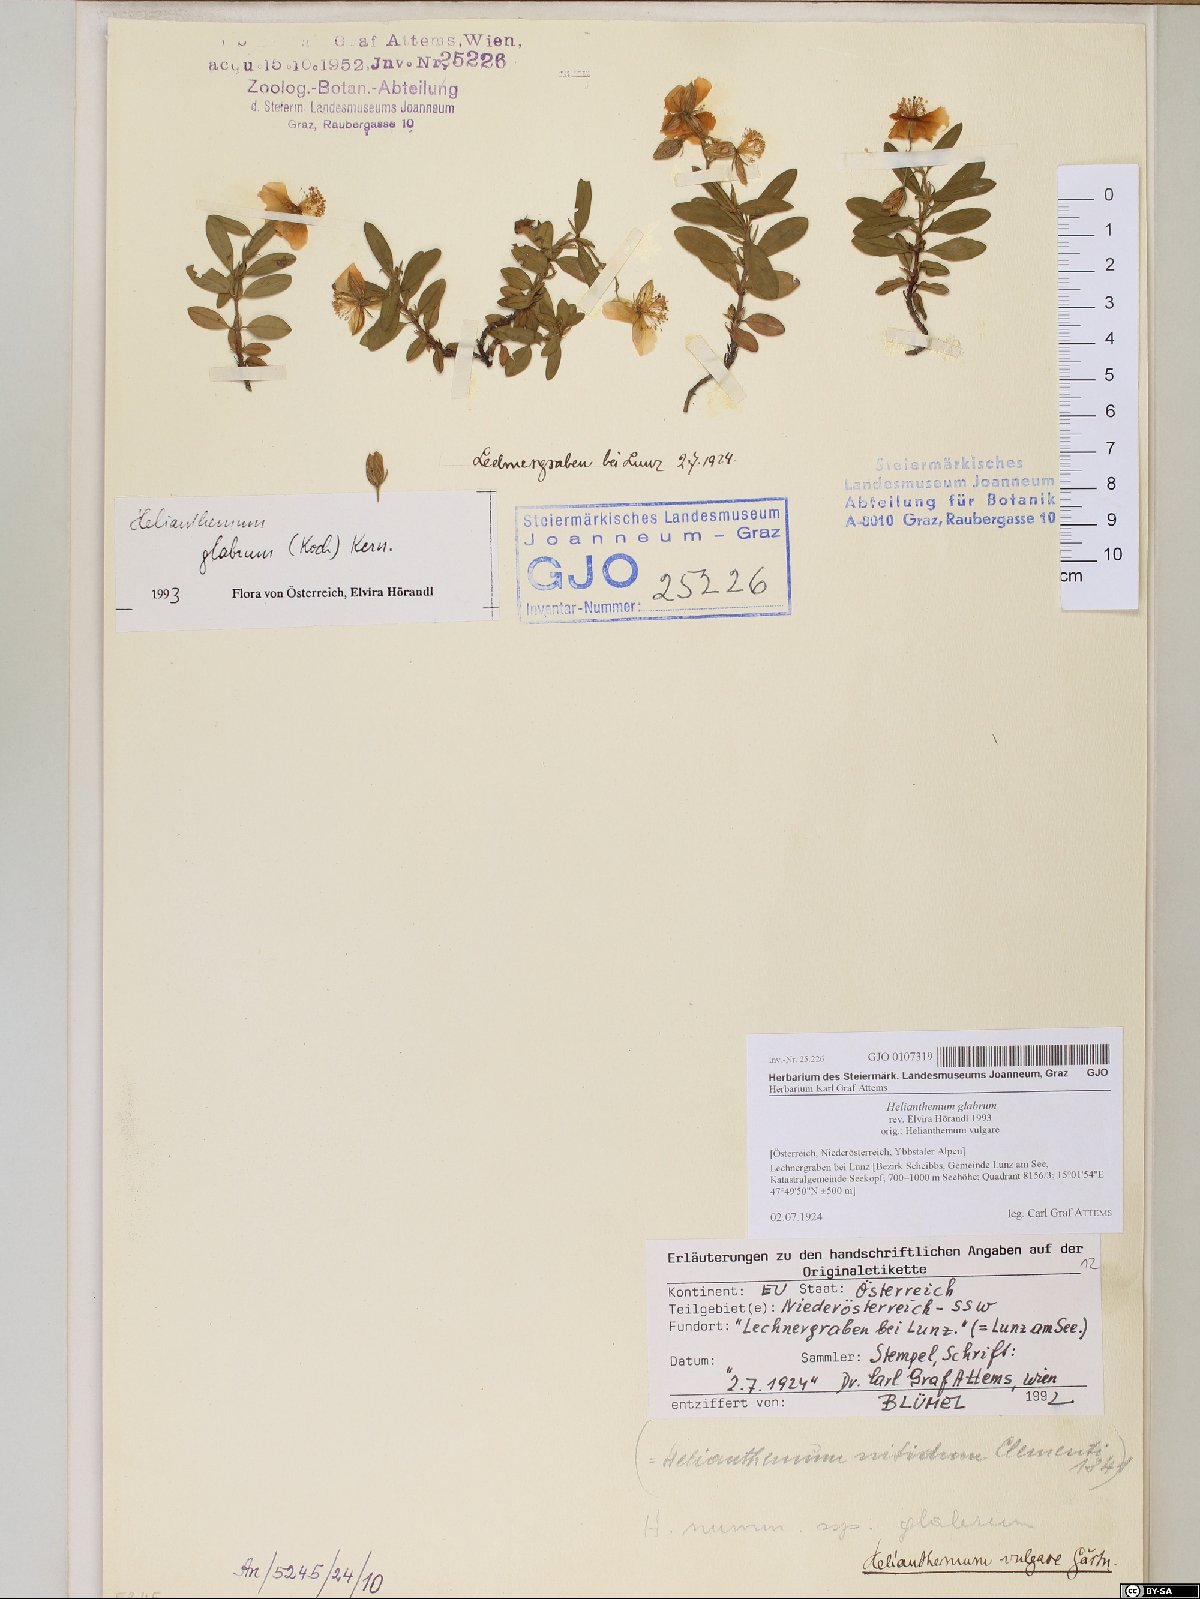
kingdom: Plantae
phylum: Tracheophyta
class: Magnoliopsida
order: Malvales
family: Cistaceae
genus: Helianthemum
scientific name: Helianthemum nummularium
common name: Common rock-rose
